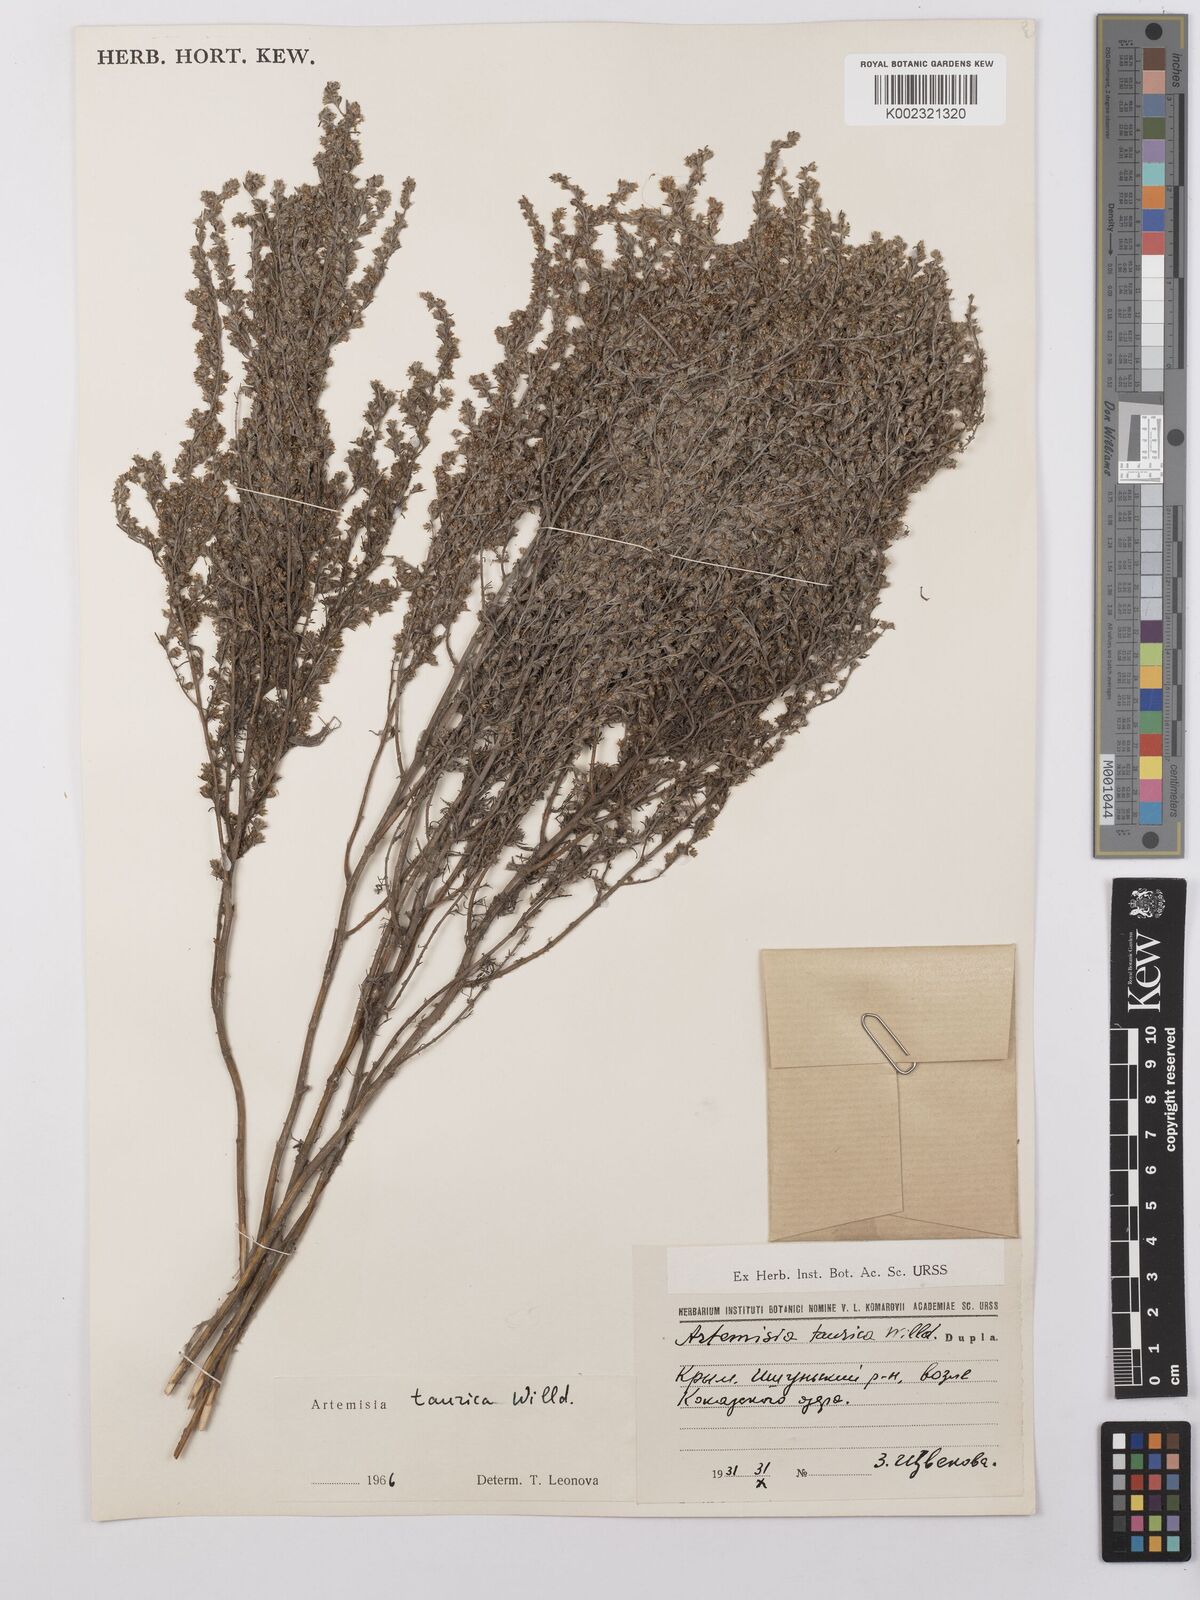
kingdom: Plantae
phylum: Tracheophyta
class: Magnoliopsida
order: Asterales
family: Asteraceae
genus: Artemisia
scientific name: Artemisia taurica
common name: Tauric wormwood
